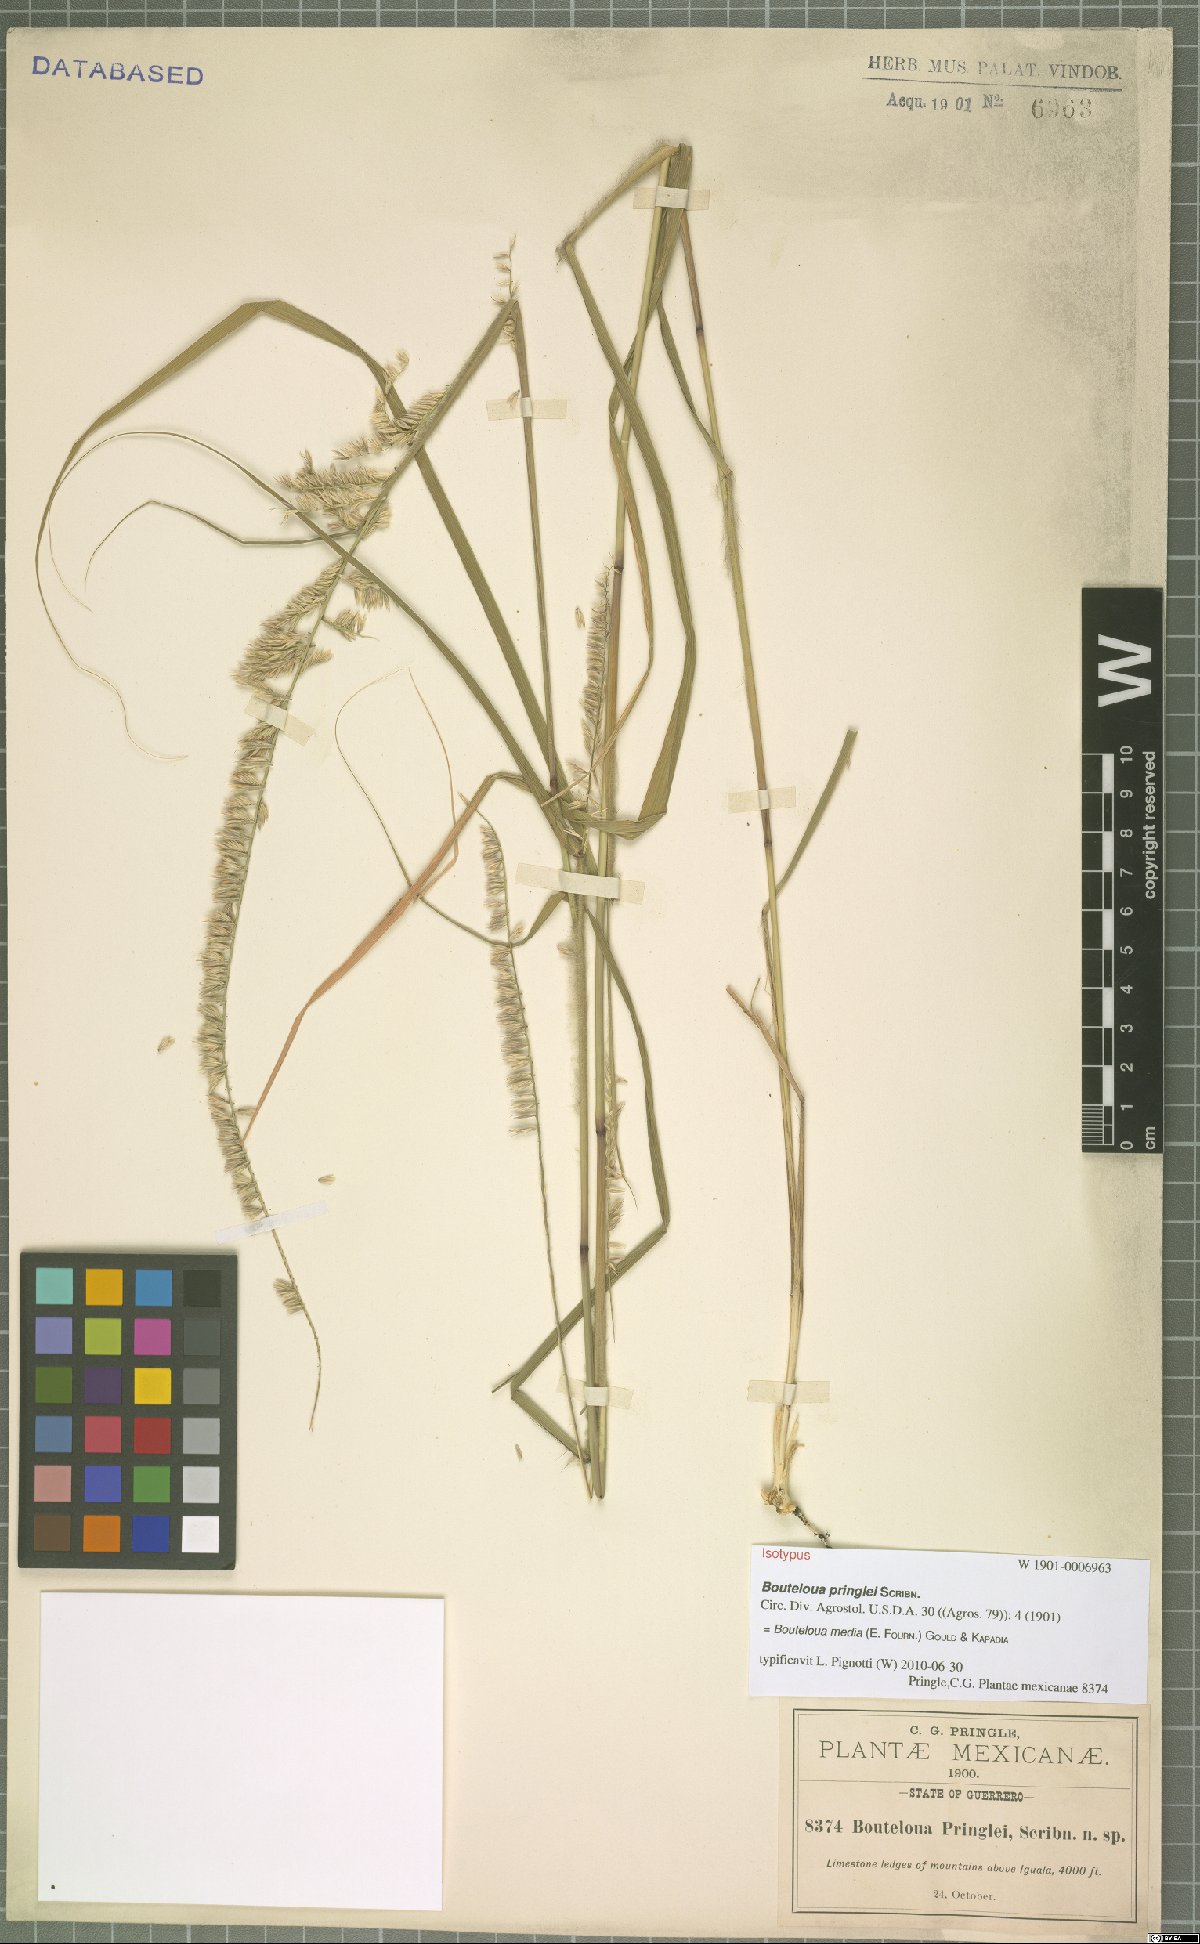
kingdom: Plantae
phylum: Tracheophyta
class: Liliopsida
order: Poales
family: Poaceae
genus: Bouteloua
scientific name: Bouteloua media
